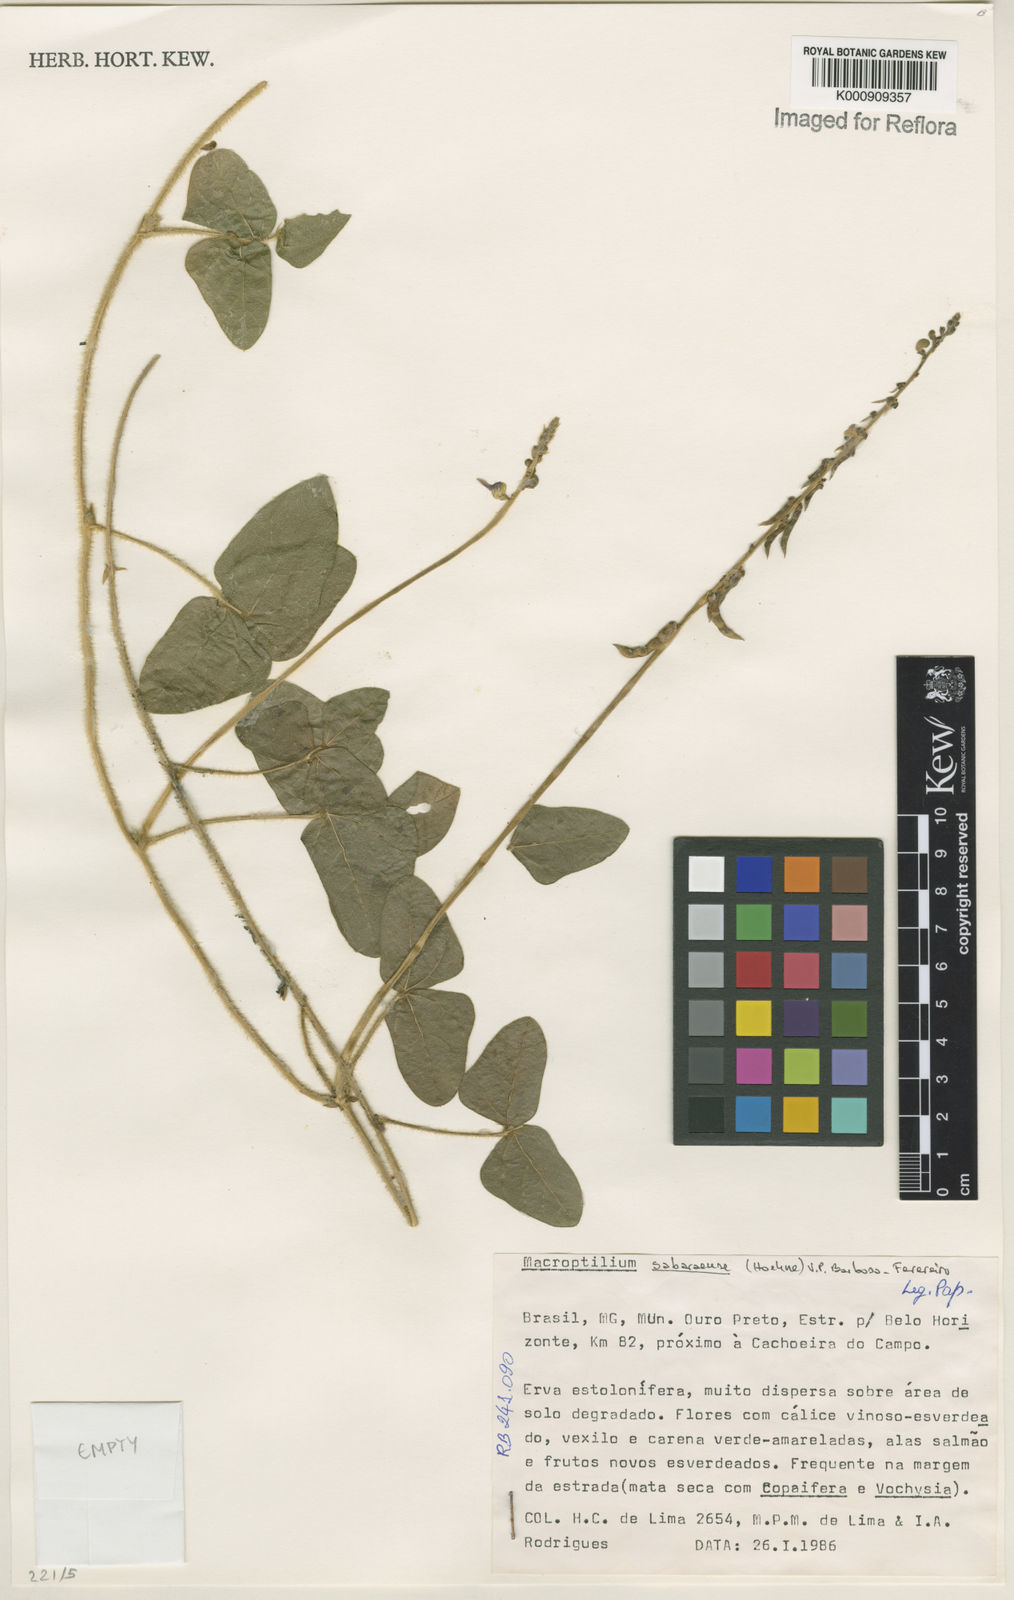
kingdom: Plantae
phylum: Tracheophyta
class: Magnoliopsida
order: Fabales
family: Fabaceae
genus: Macroptilium
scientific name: Macroptilium sabaraense
